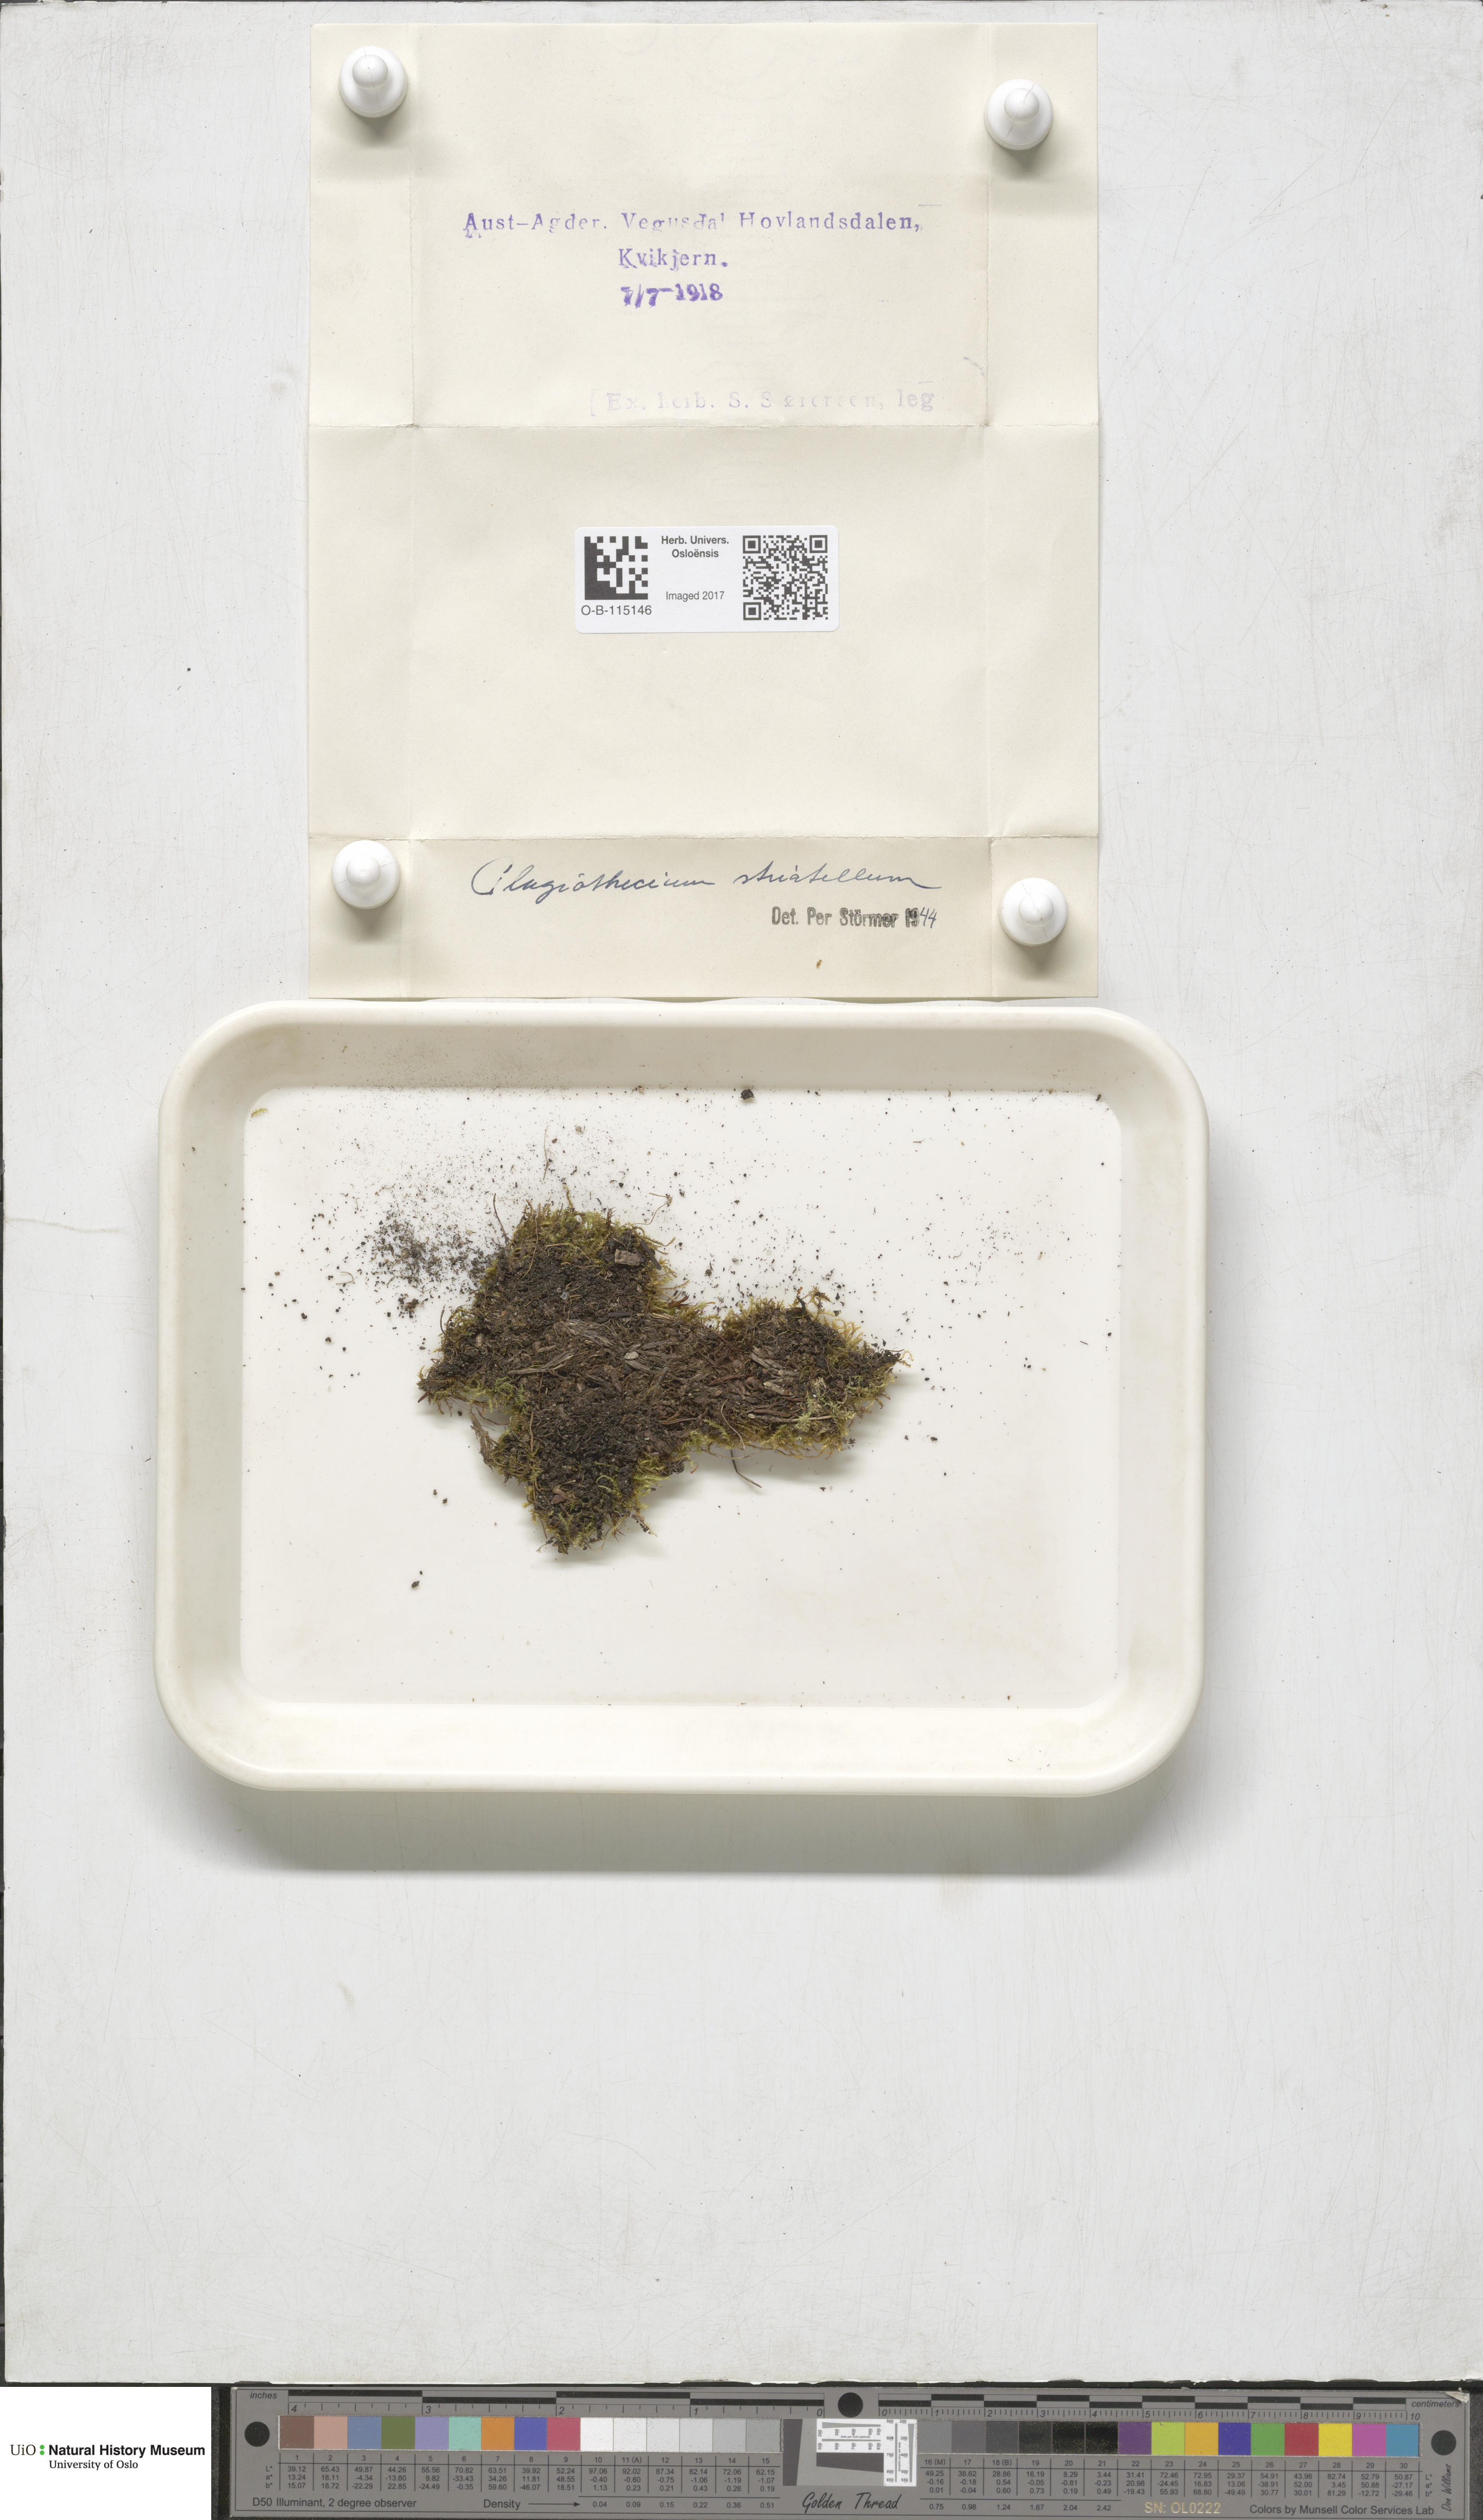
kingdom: Plantae
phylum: Bryophyta
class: Bryopsida
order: Hypnales
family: Plagiotheciaceae
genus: Herzogiella
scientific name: Herzogiella striatella
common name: Muhlenbeck's feather-moss
